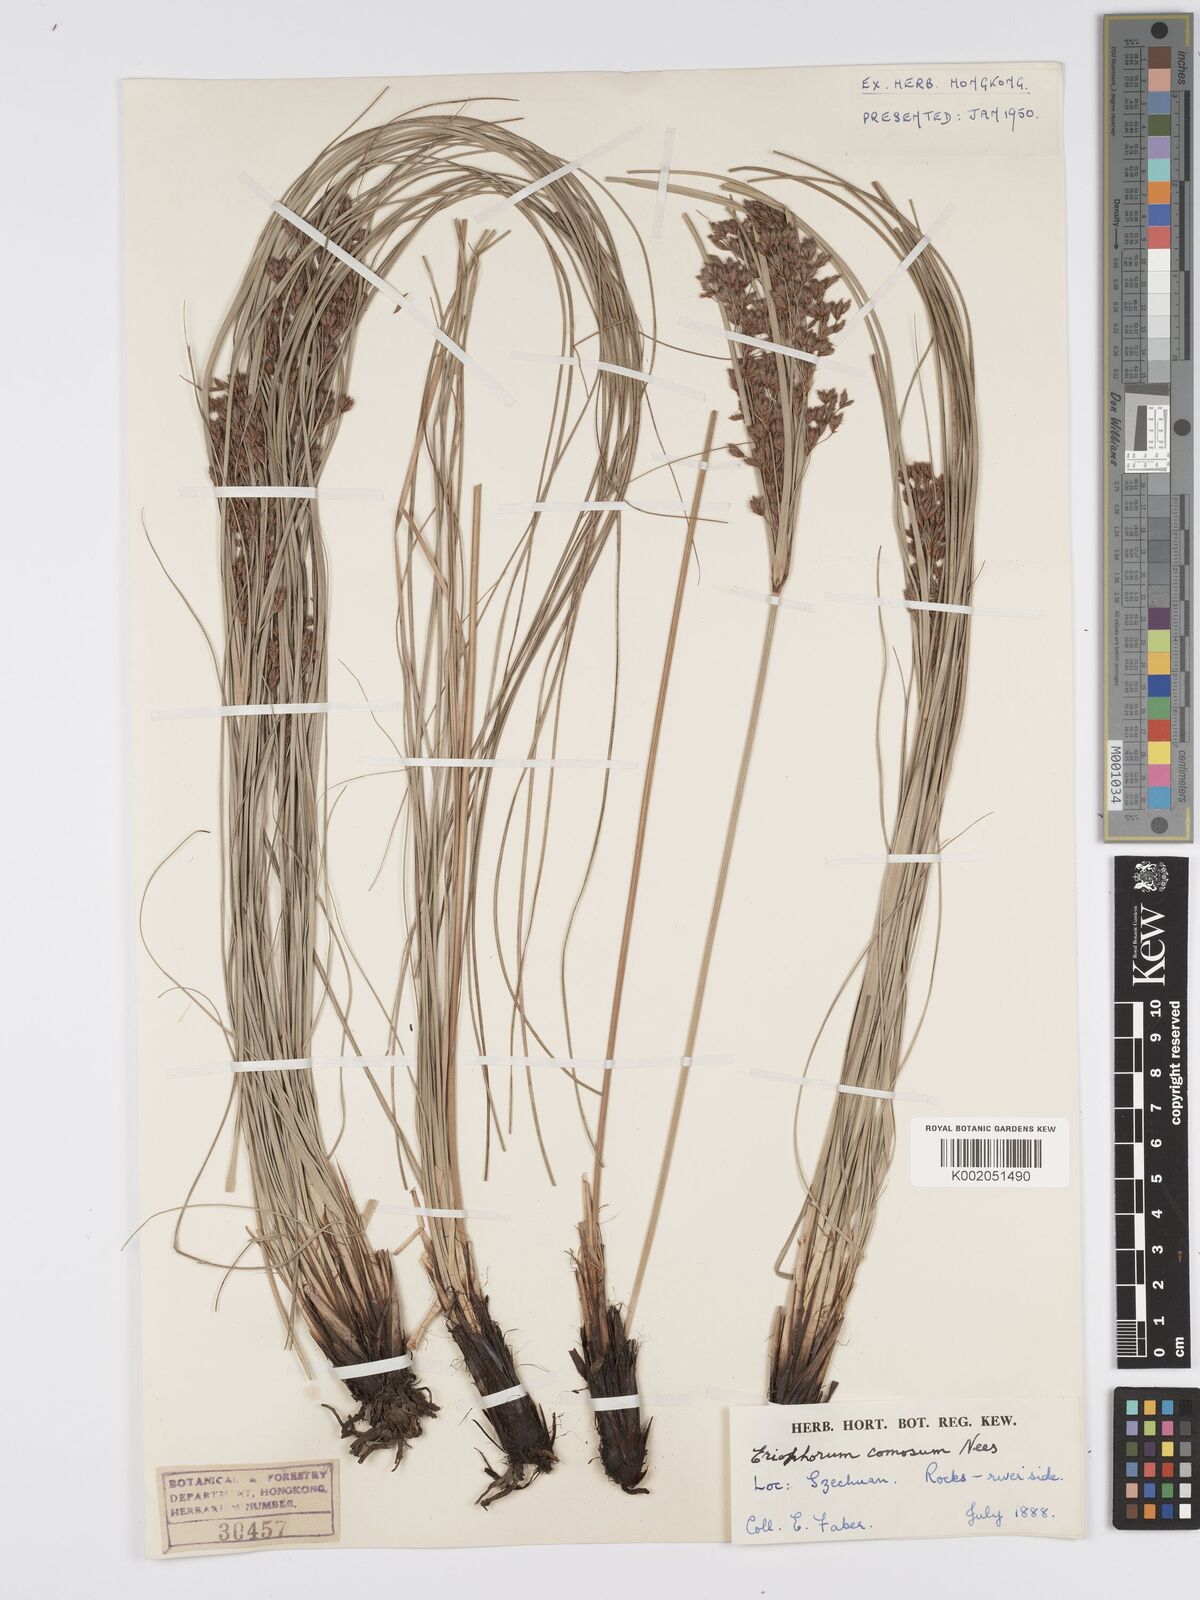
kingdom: Plantae
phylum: Tracheophyta
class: Liliopsida
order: Poales
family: Cyperaceae
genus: Erioscirpus
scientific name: Erioscirpus comosus
